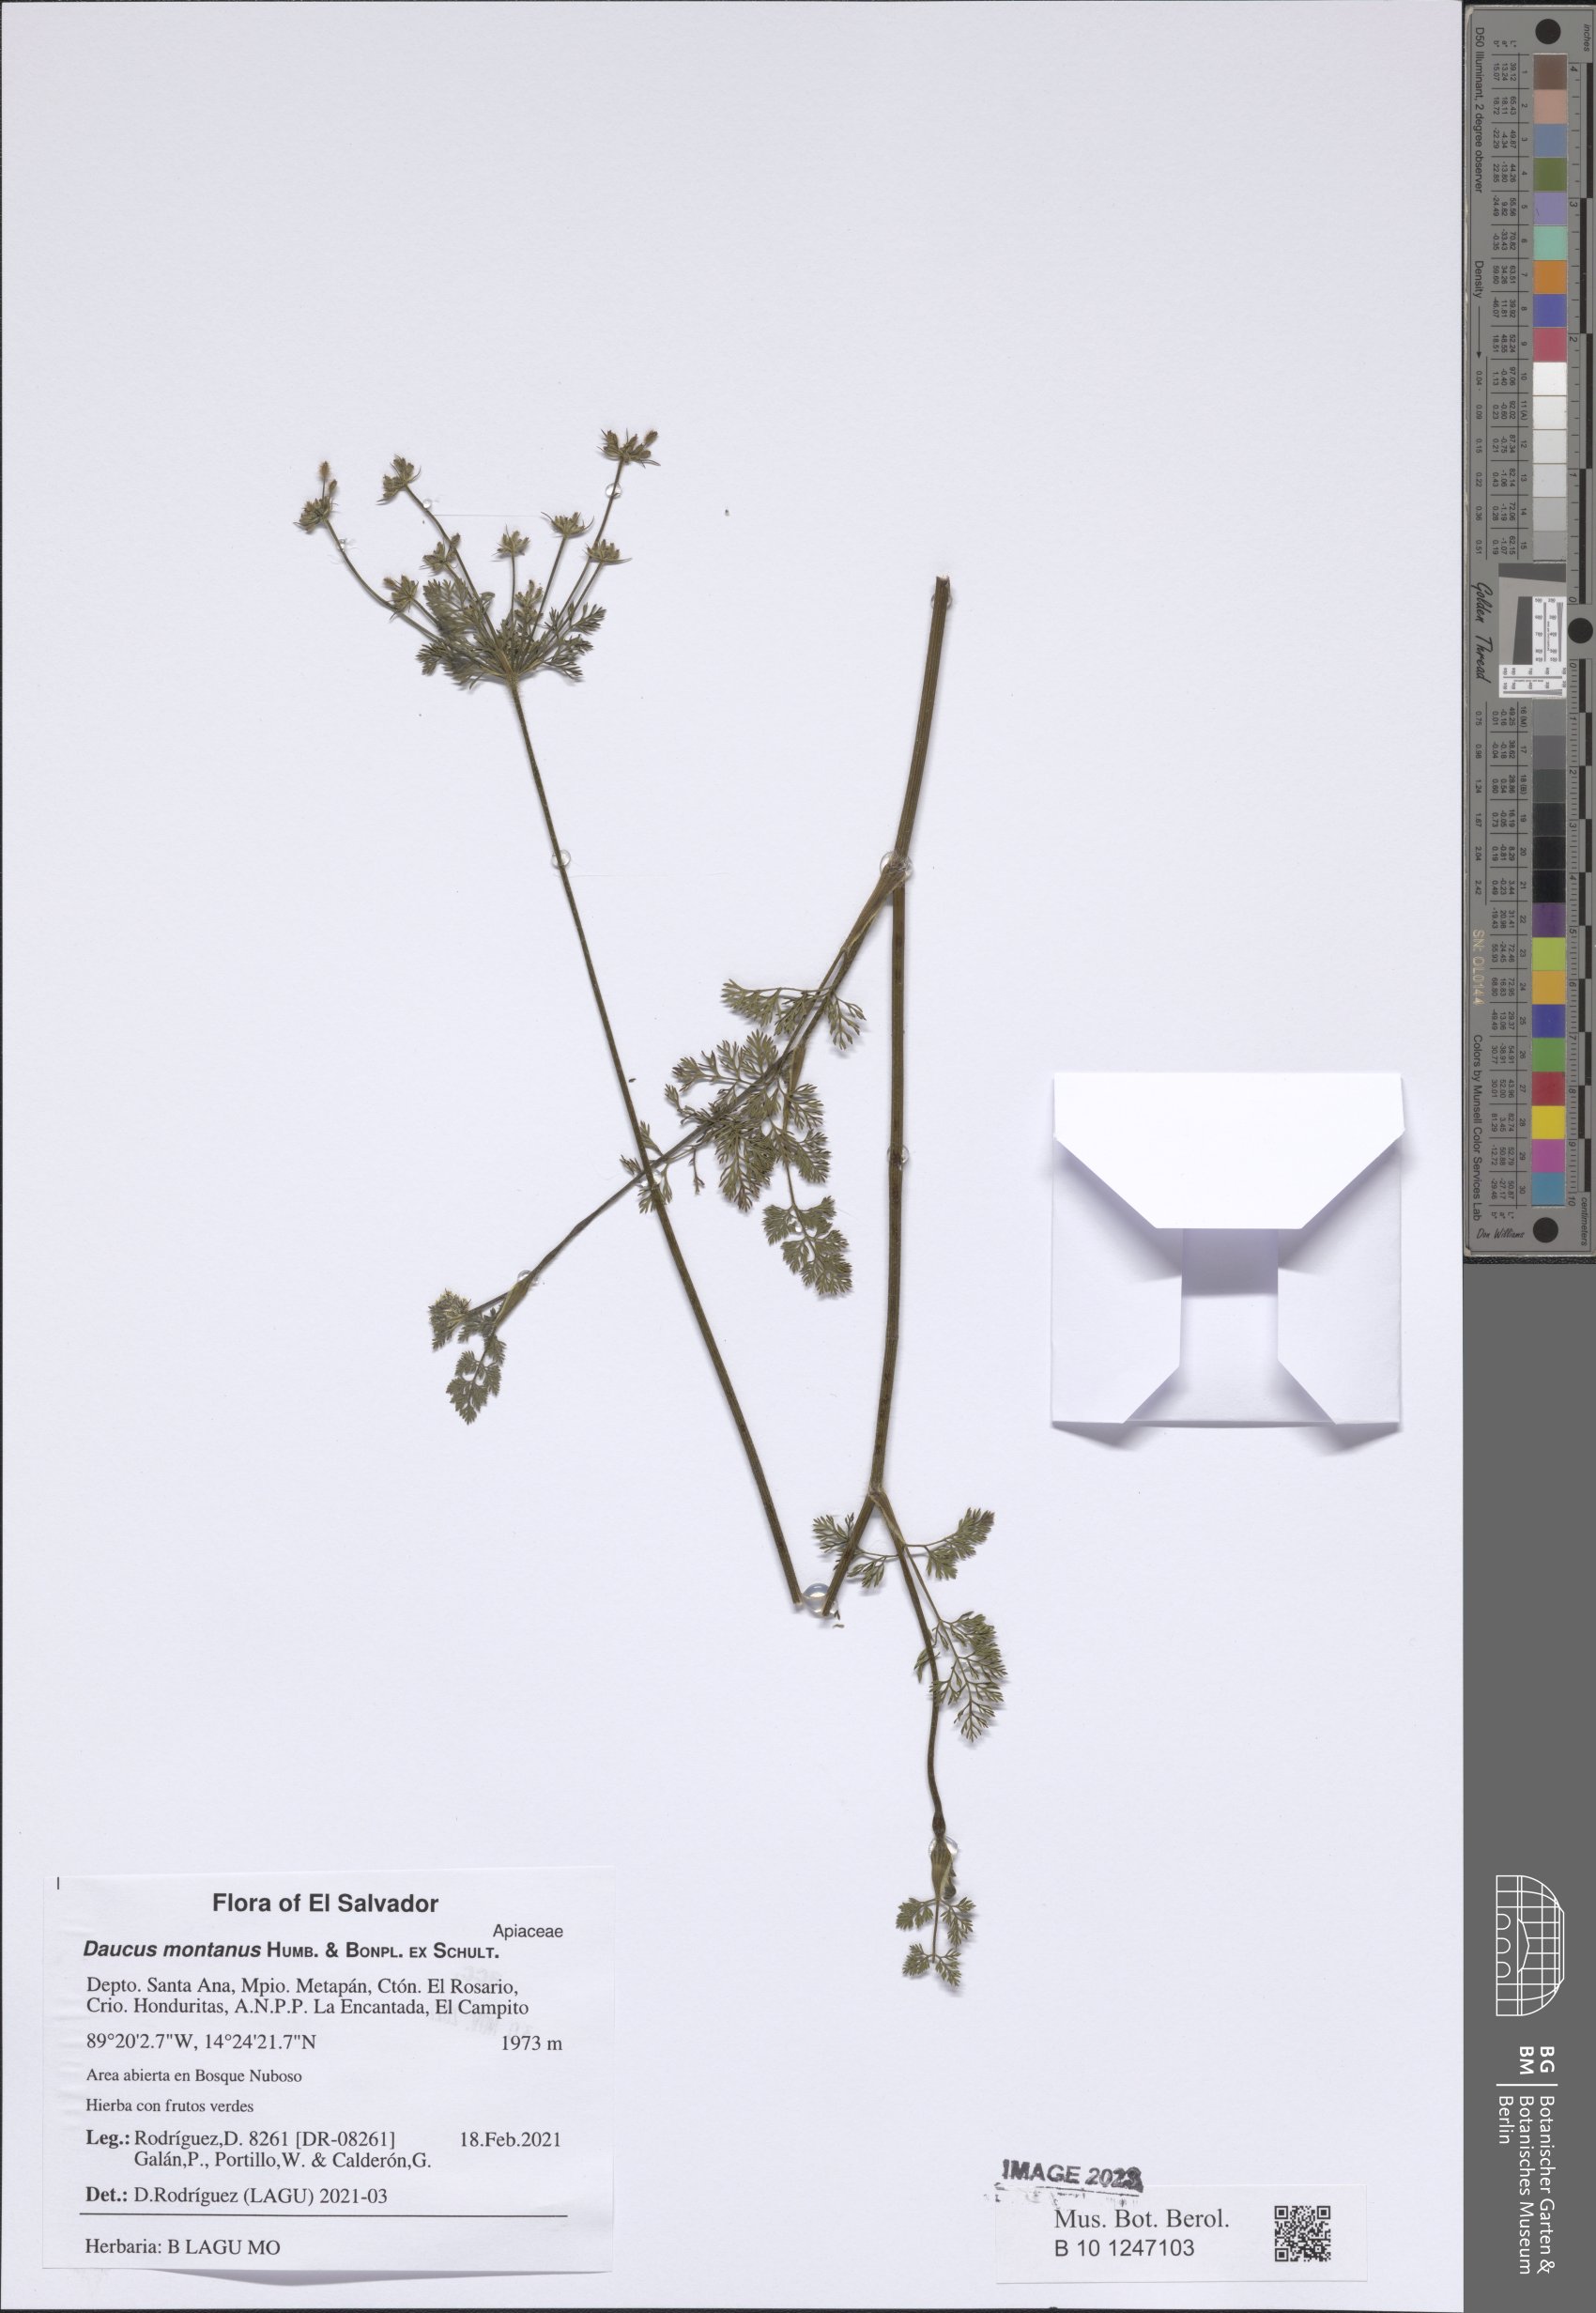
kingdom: Plantae
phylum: Tracheophyta
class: Magnoliopsida
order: Apiales
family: Apiaceae
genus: Daucus
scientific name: Daucus montanus
